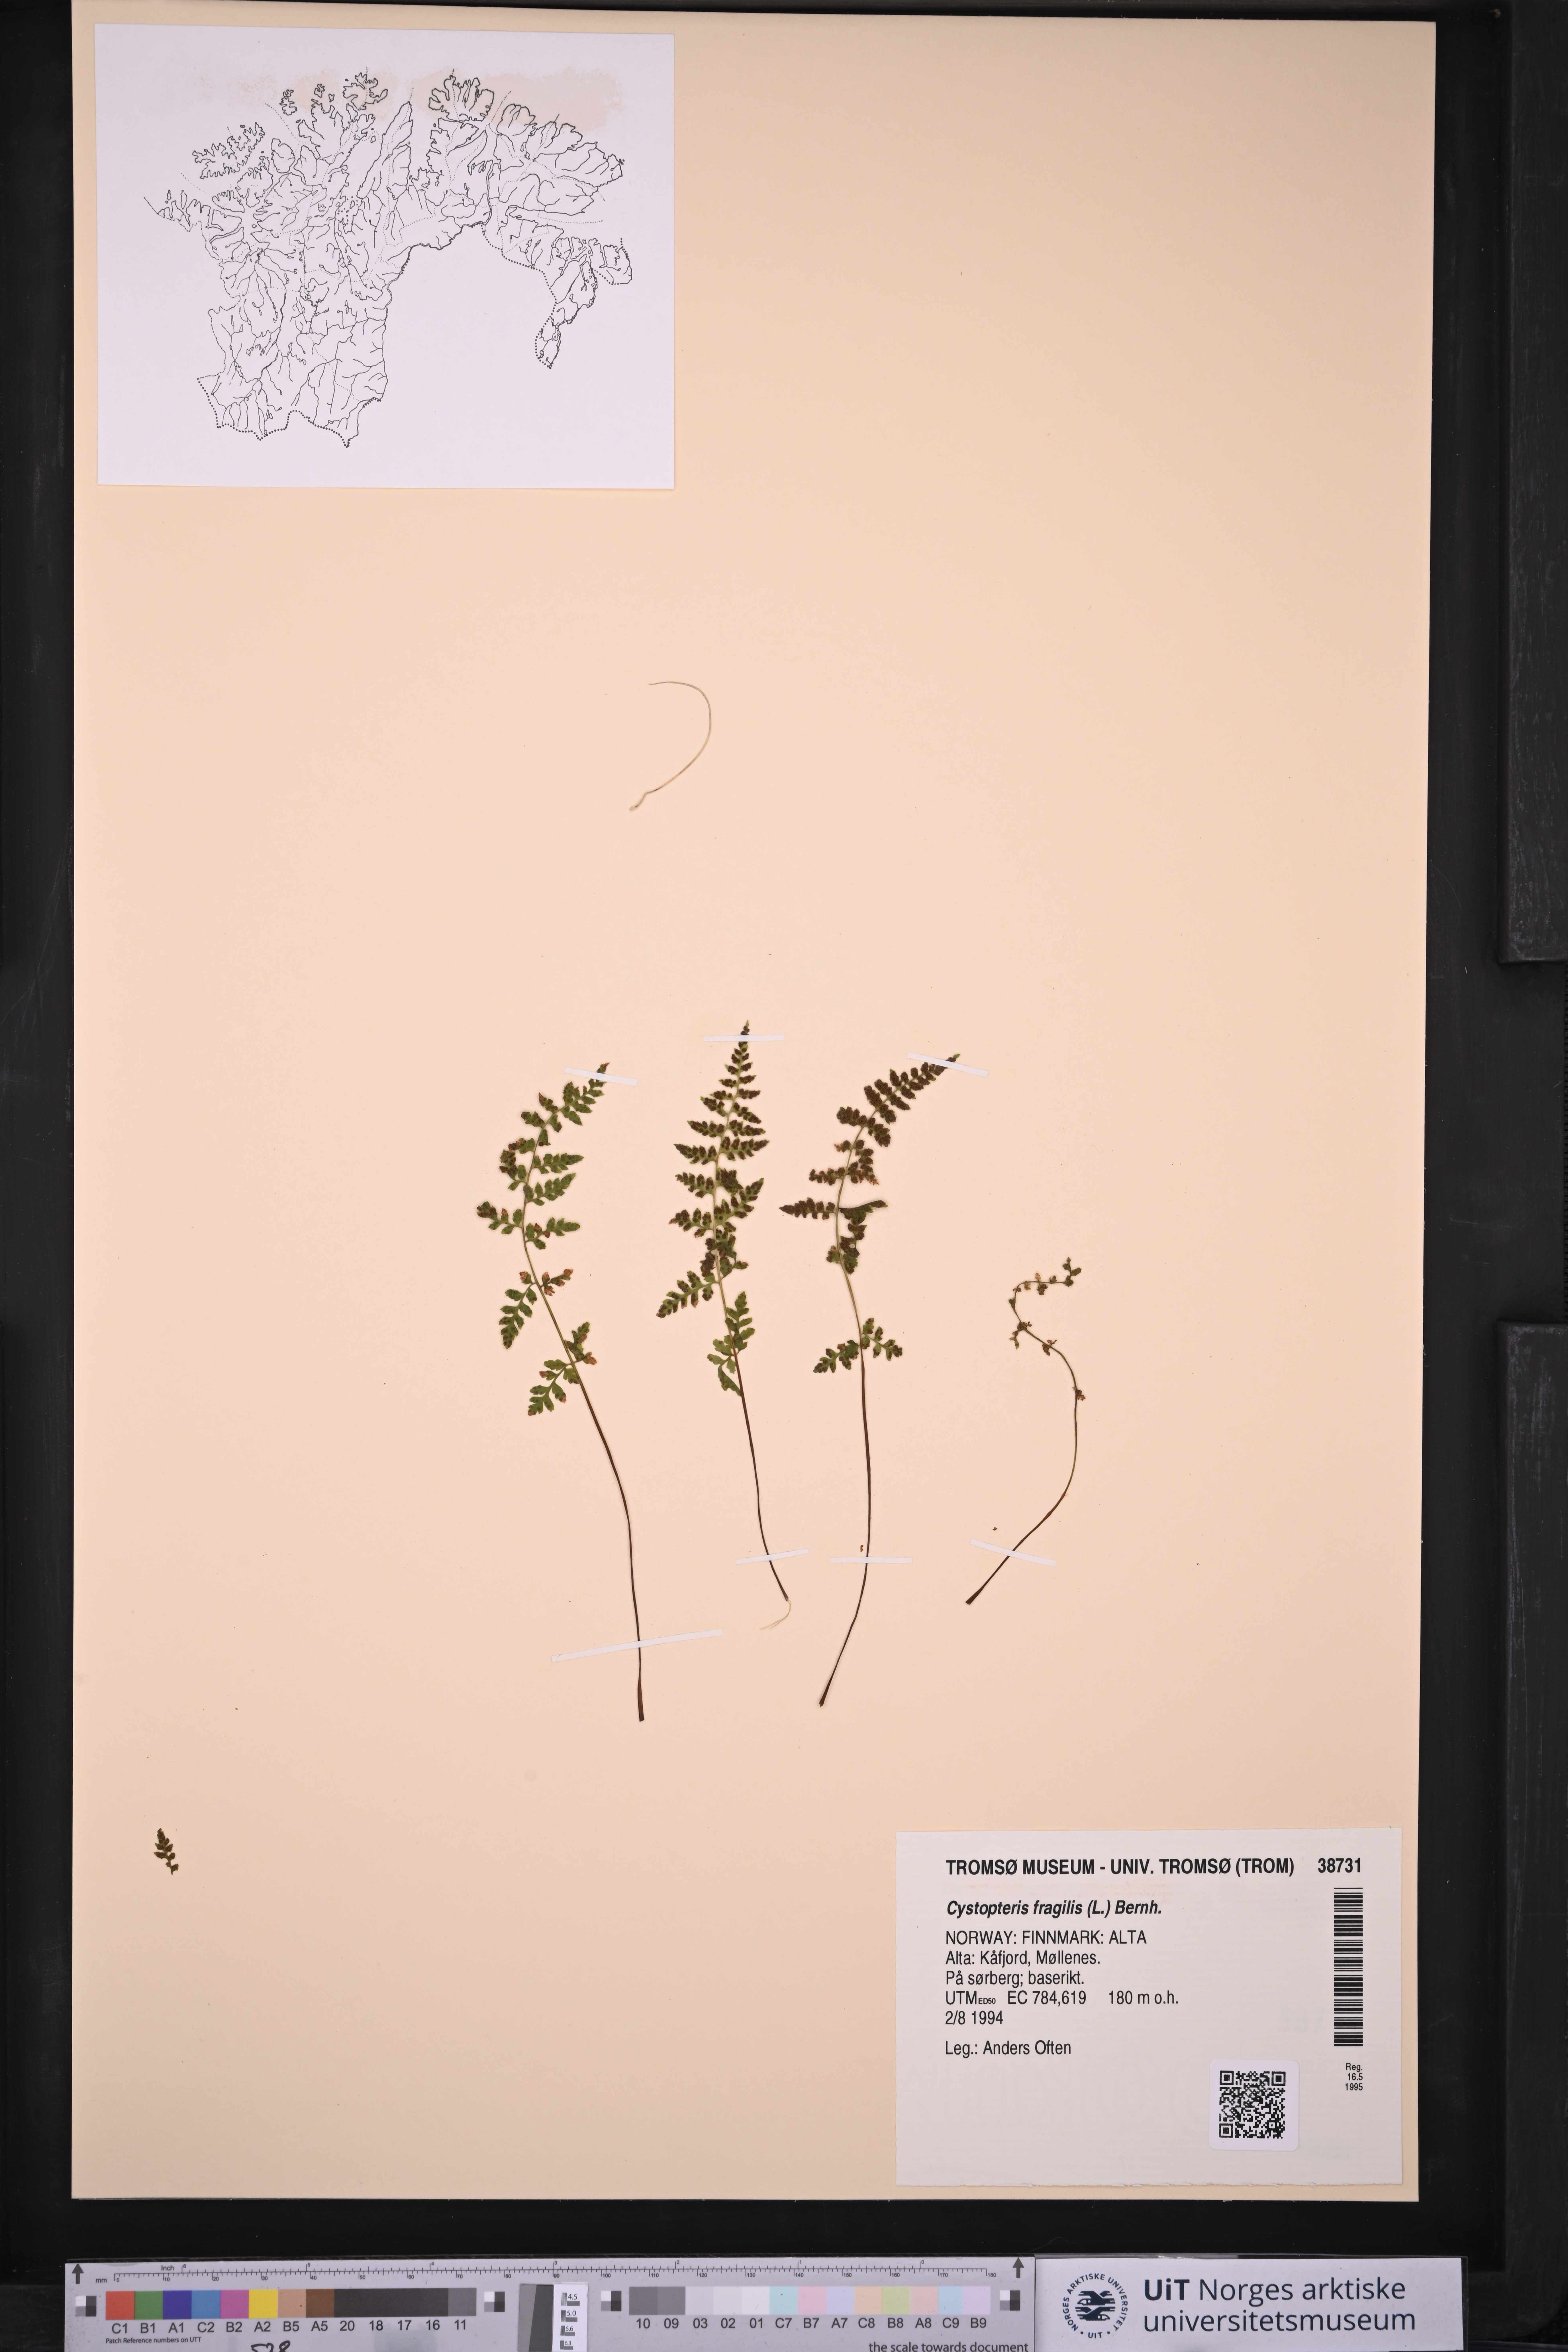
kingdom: Plantae
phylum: Tracheophyta
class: Polypodiopsida
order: Polypodiales
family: Cystopteridaceae
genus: Cystopteris
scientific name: Cystopteris fragilis
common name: Brittle bladder fern
